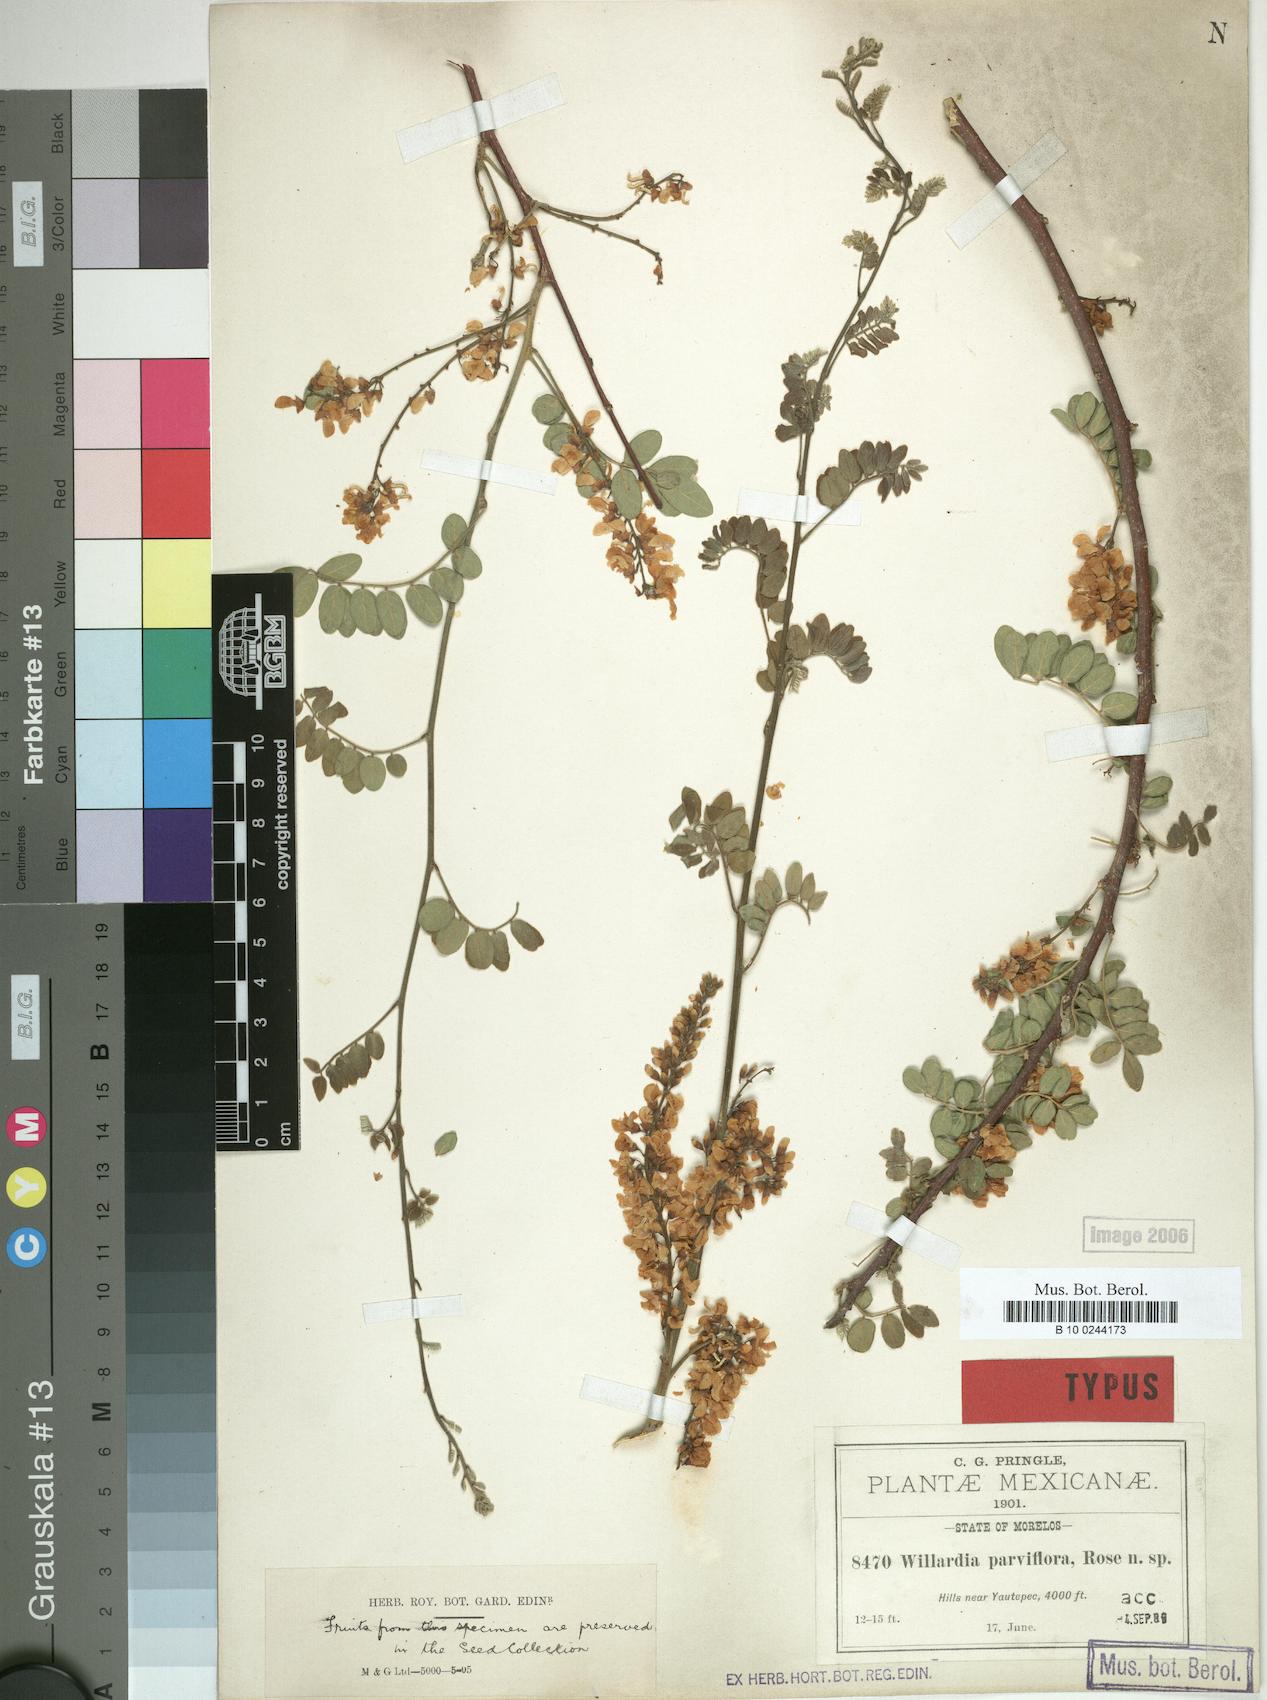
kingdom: Plantae
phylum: Tracheophyta
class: Magnoliopsida
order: Fabales
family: Fabaceae
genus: Lonchocarpus
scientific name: Lonchocarpus andrieuxii
